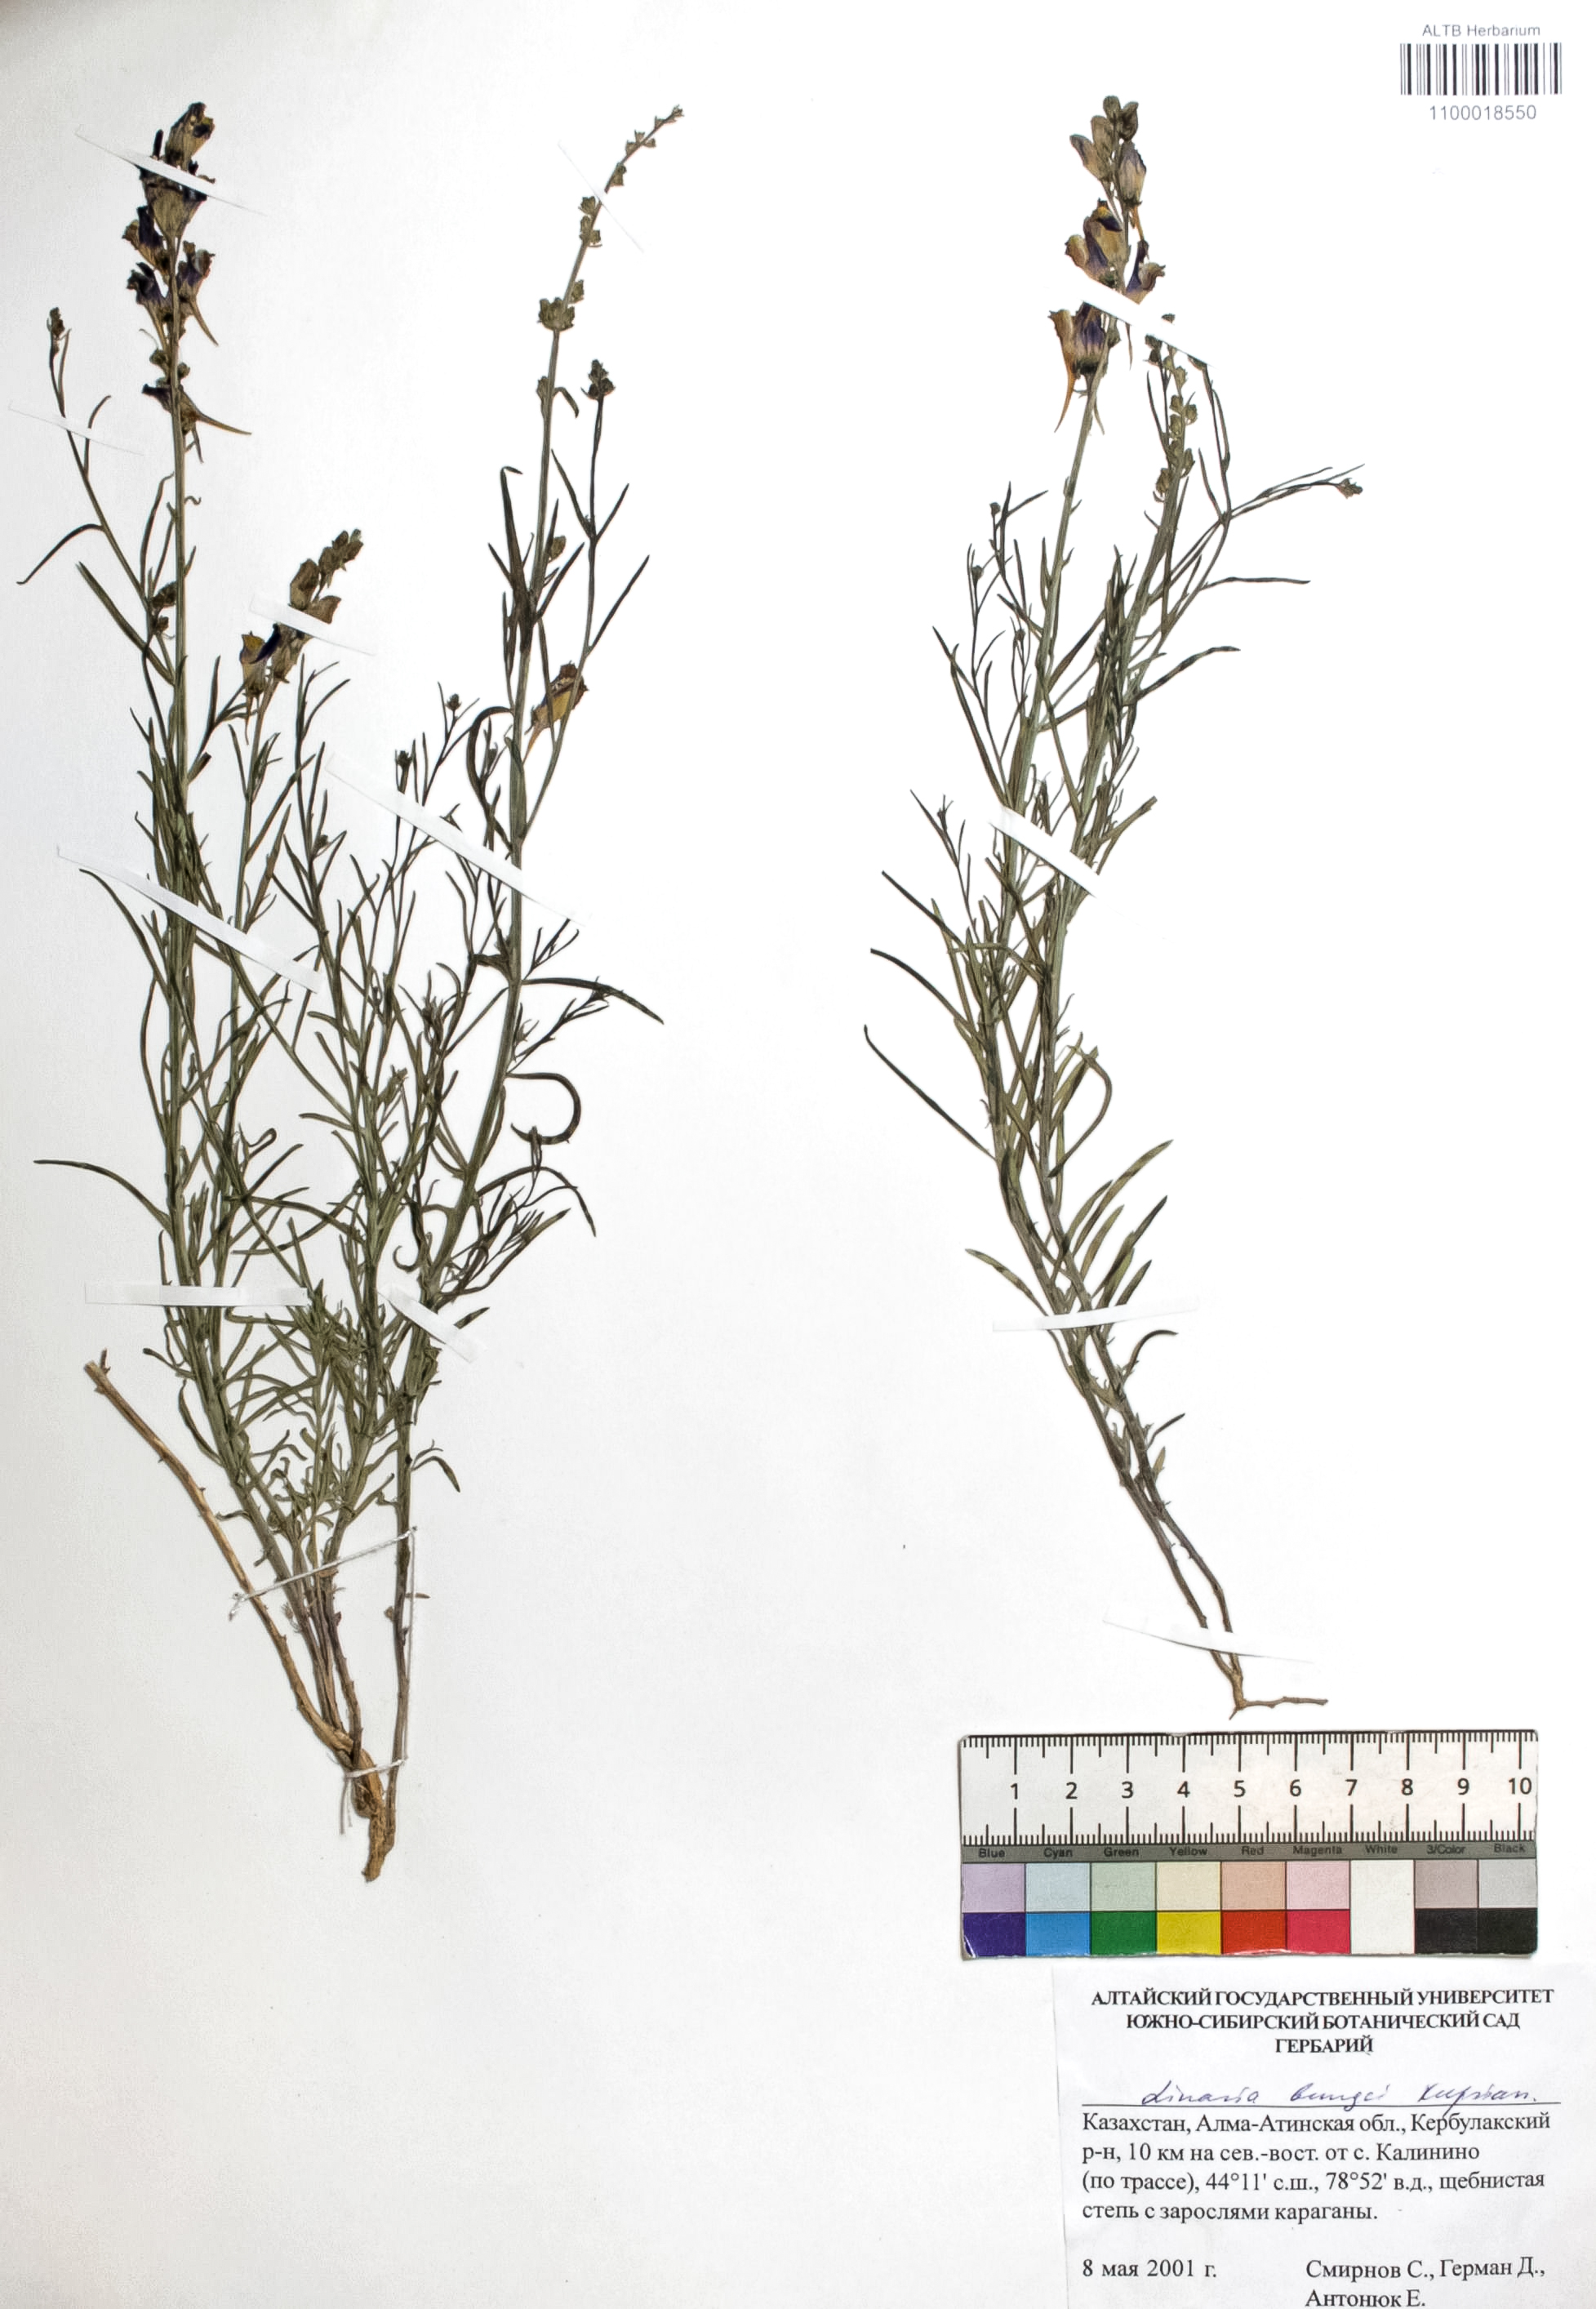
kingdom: Plantae
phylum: Tracheophyta
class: Magnoliopsida
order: Lamiales
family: Plantaginaceae
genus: Linaria
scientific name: Linaria bungei
